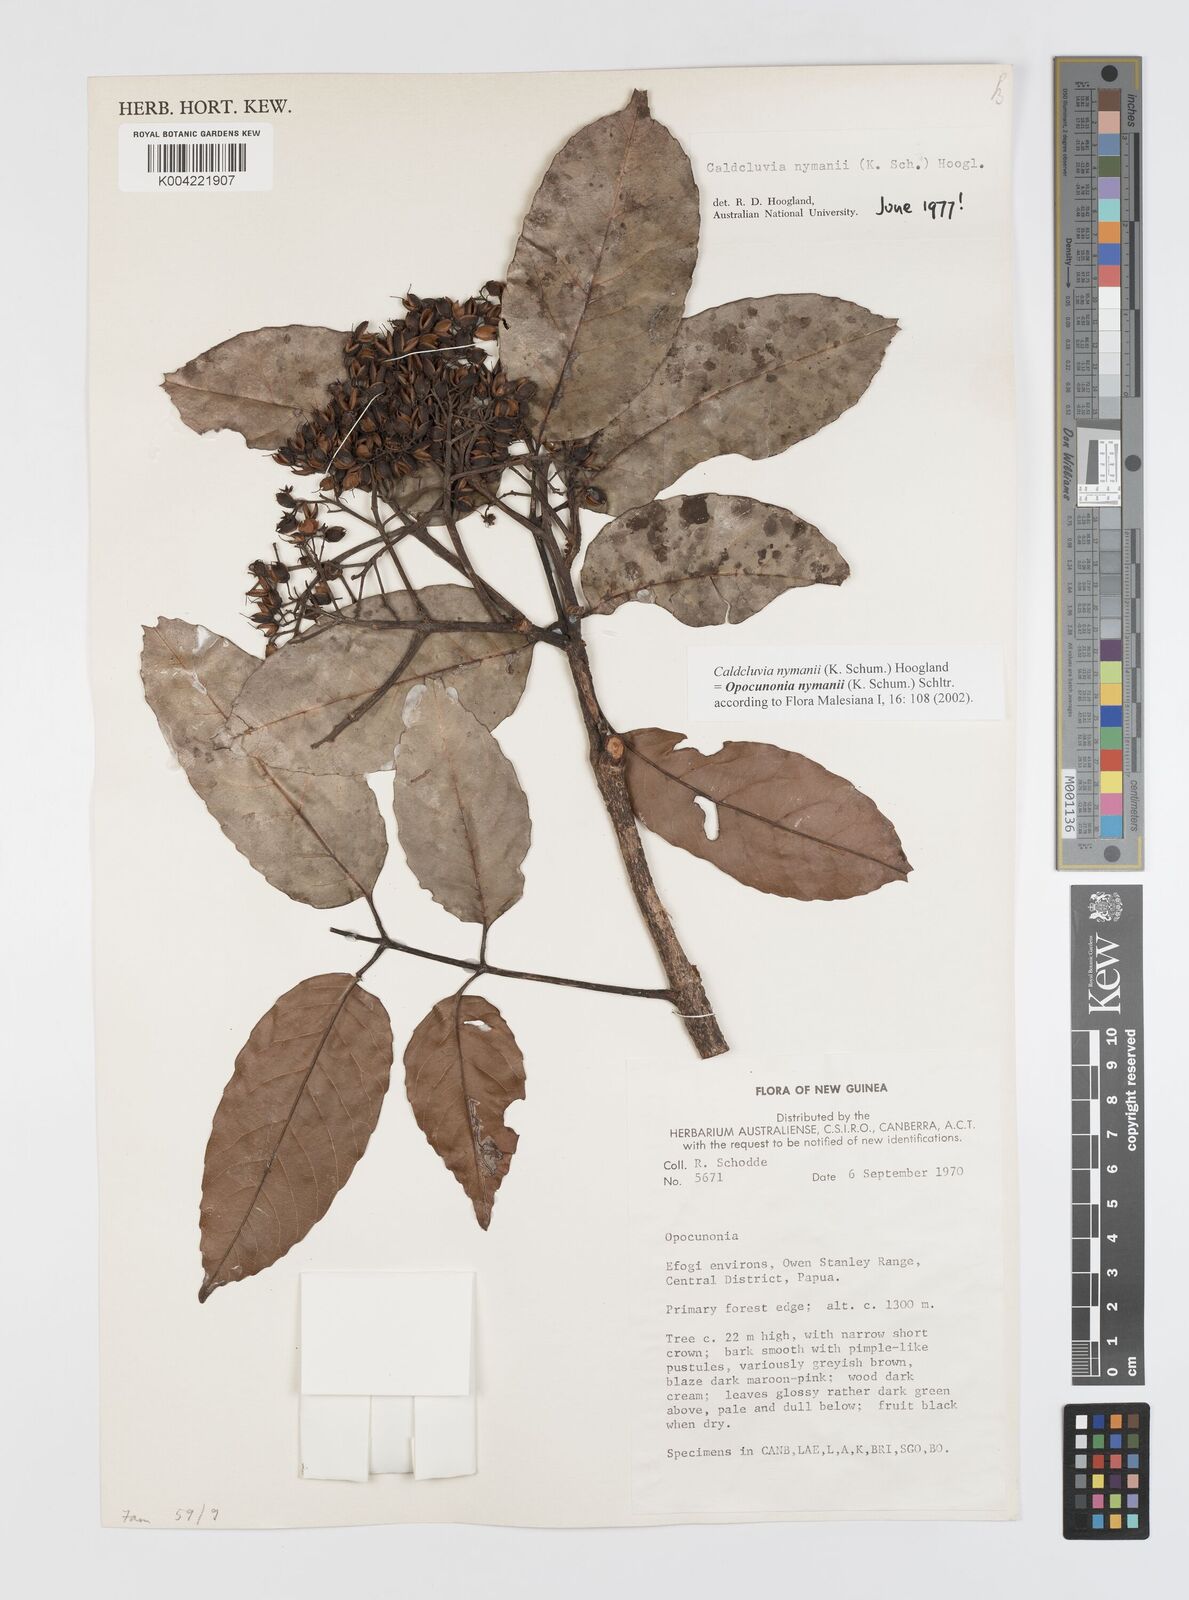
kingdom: Plantae
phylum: Tracheophyta
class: Magnoliopsida
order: Oxalidales
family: Cunoniaceae
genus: Opocunonia
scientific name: Opocunonia nymanii
